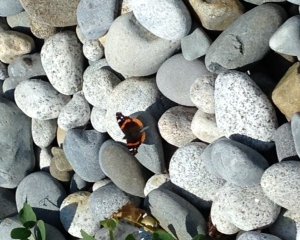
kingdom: Animalia
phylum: Arthropoda
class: Insecta
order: Lepidoptera
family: Nymphalidae
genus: Vanessa
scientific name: Vanessa atalanta
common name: Red Admiral
